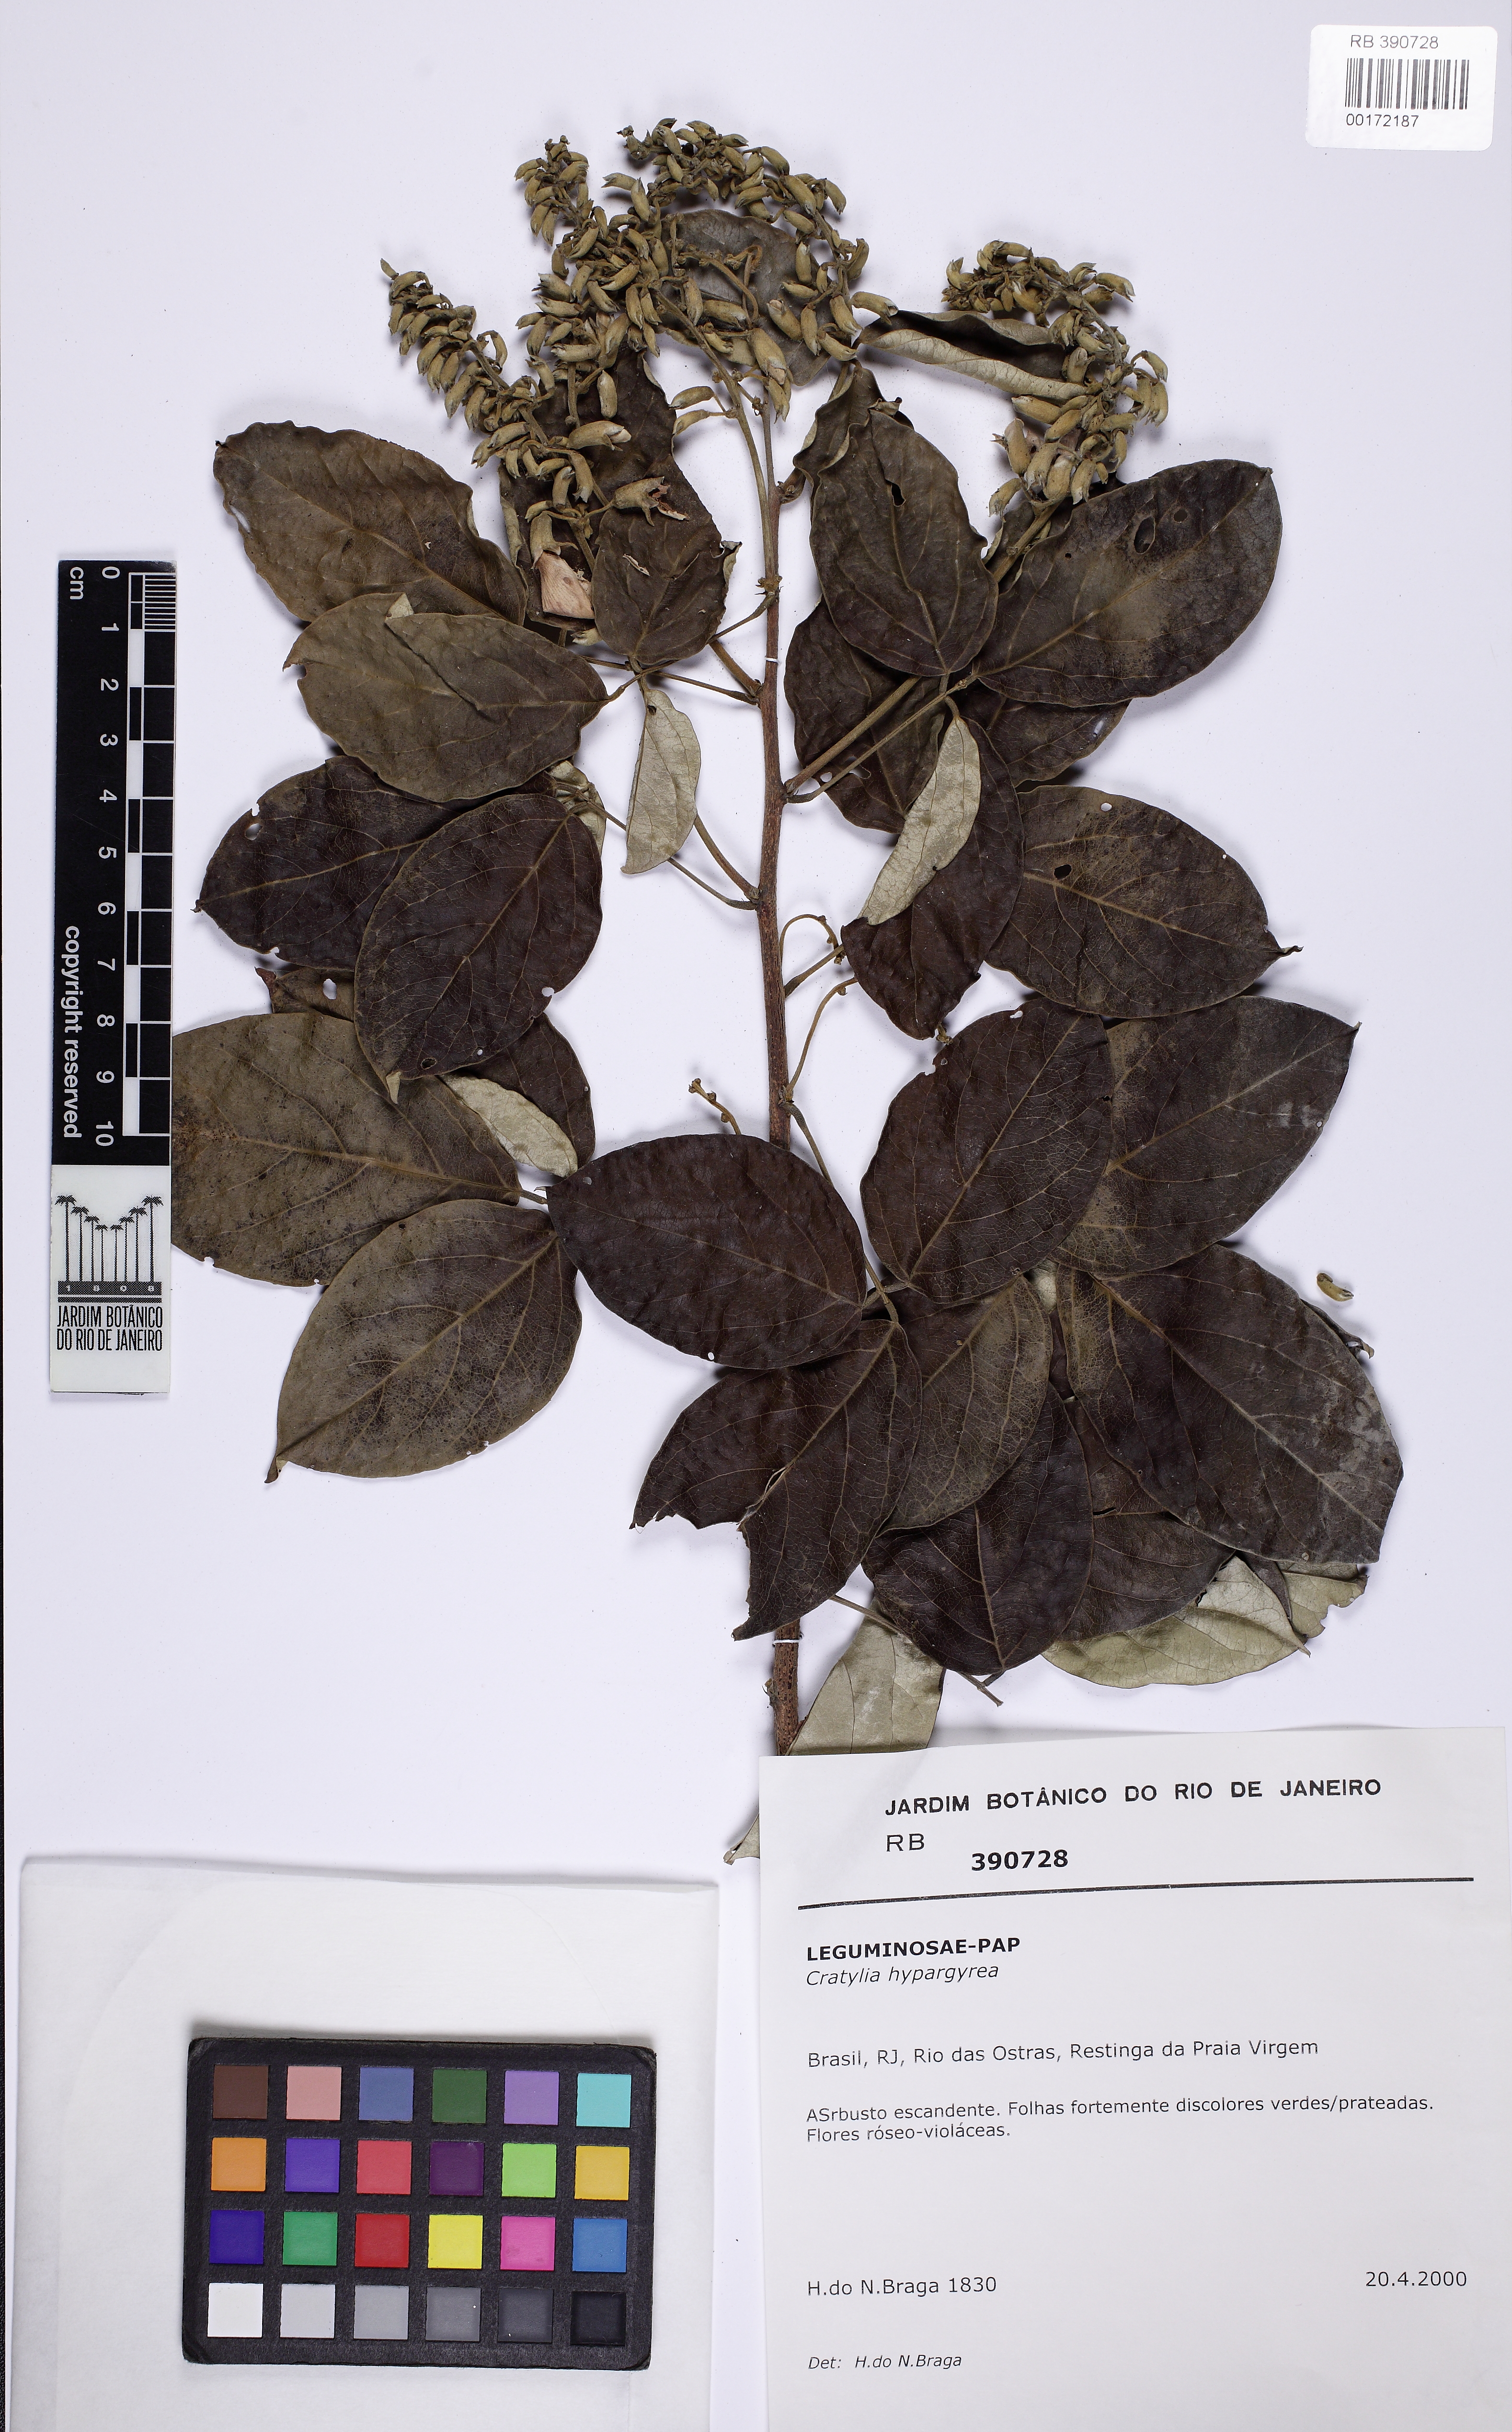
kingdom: Plantae
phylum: Tracheophyta
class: Magnoliopsida
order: Fabales
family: Fabaceae
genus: Cratylia
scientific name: Cratylia hypargyrea
